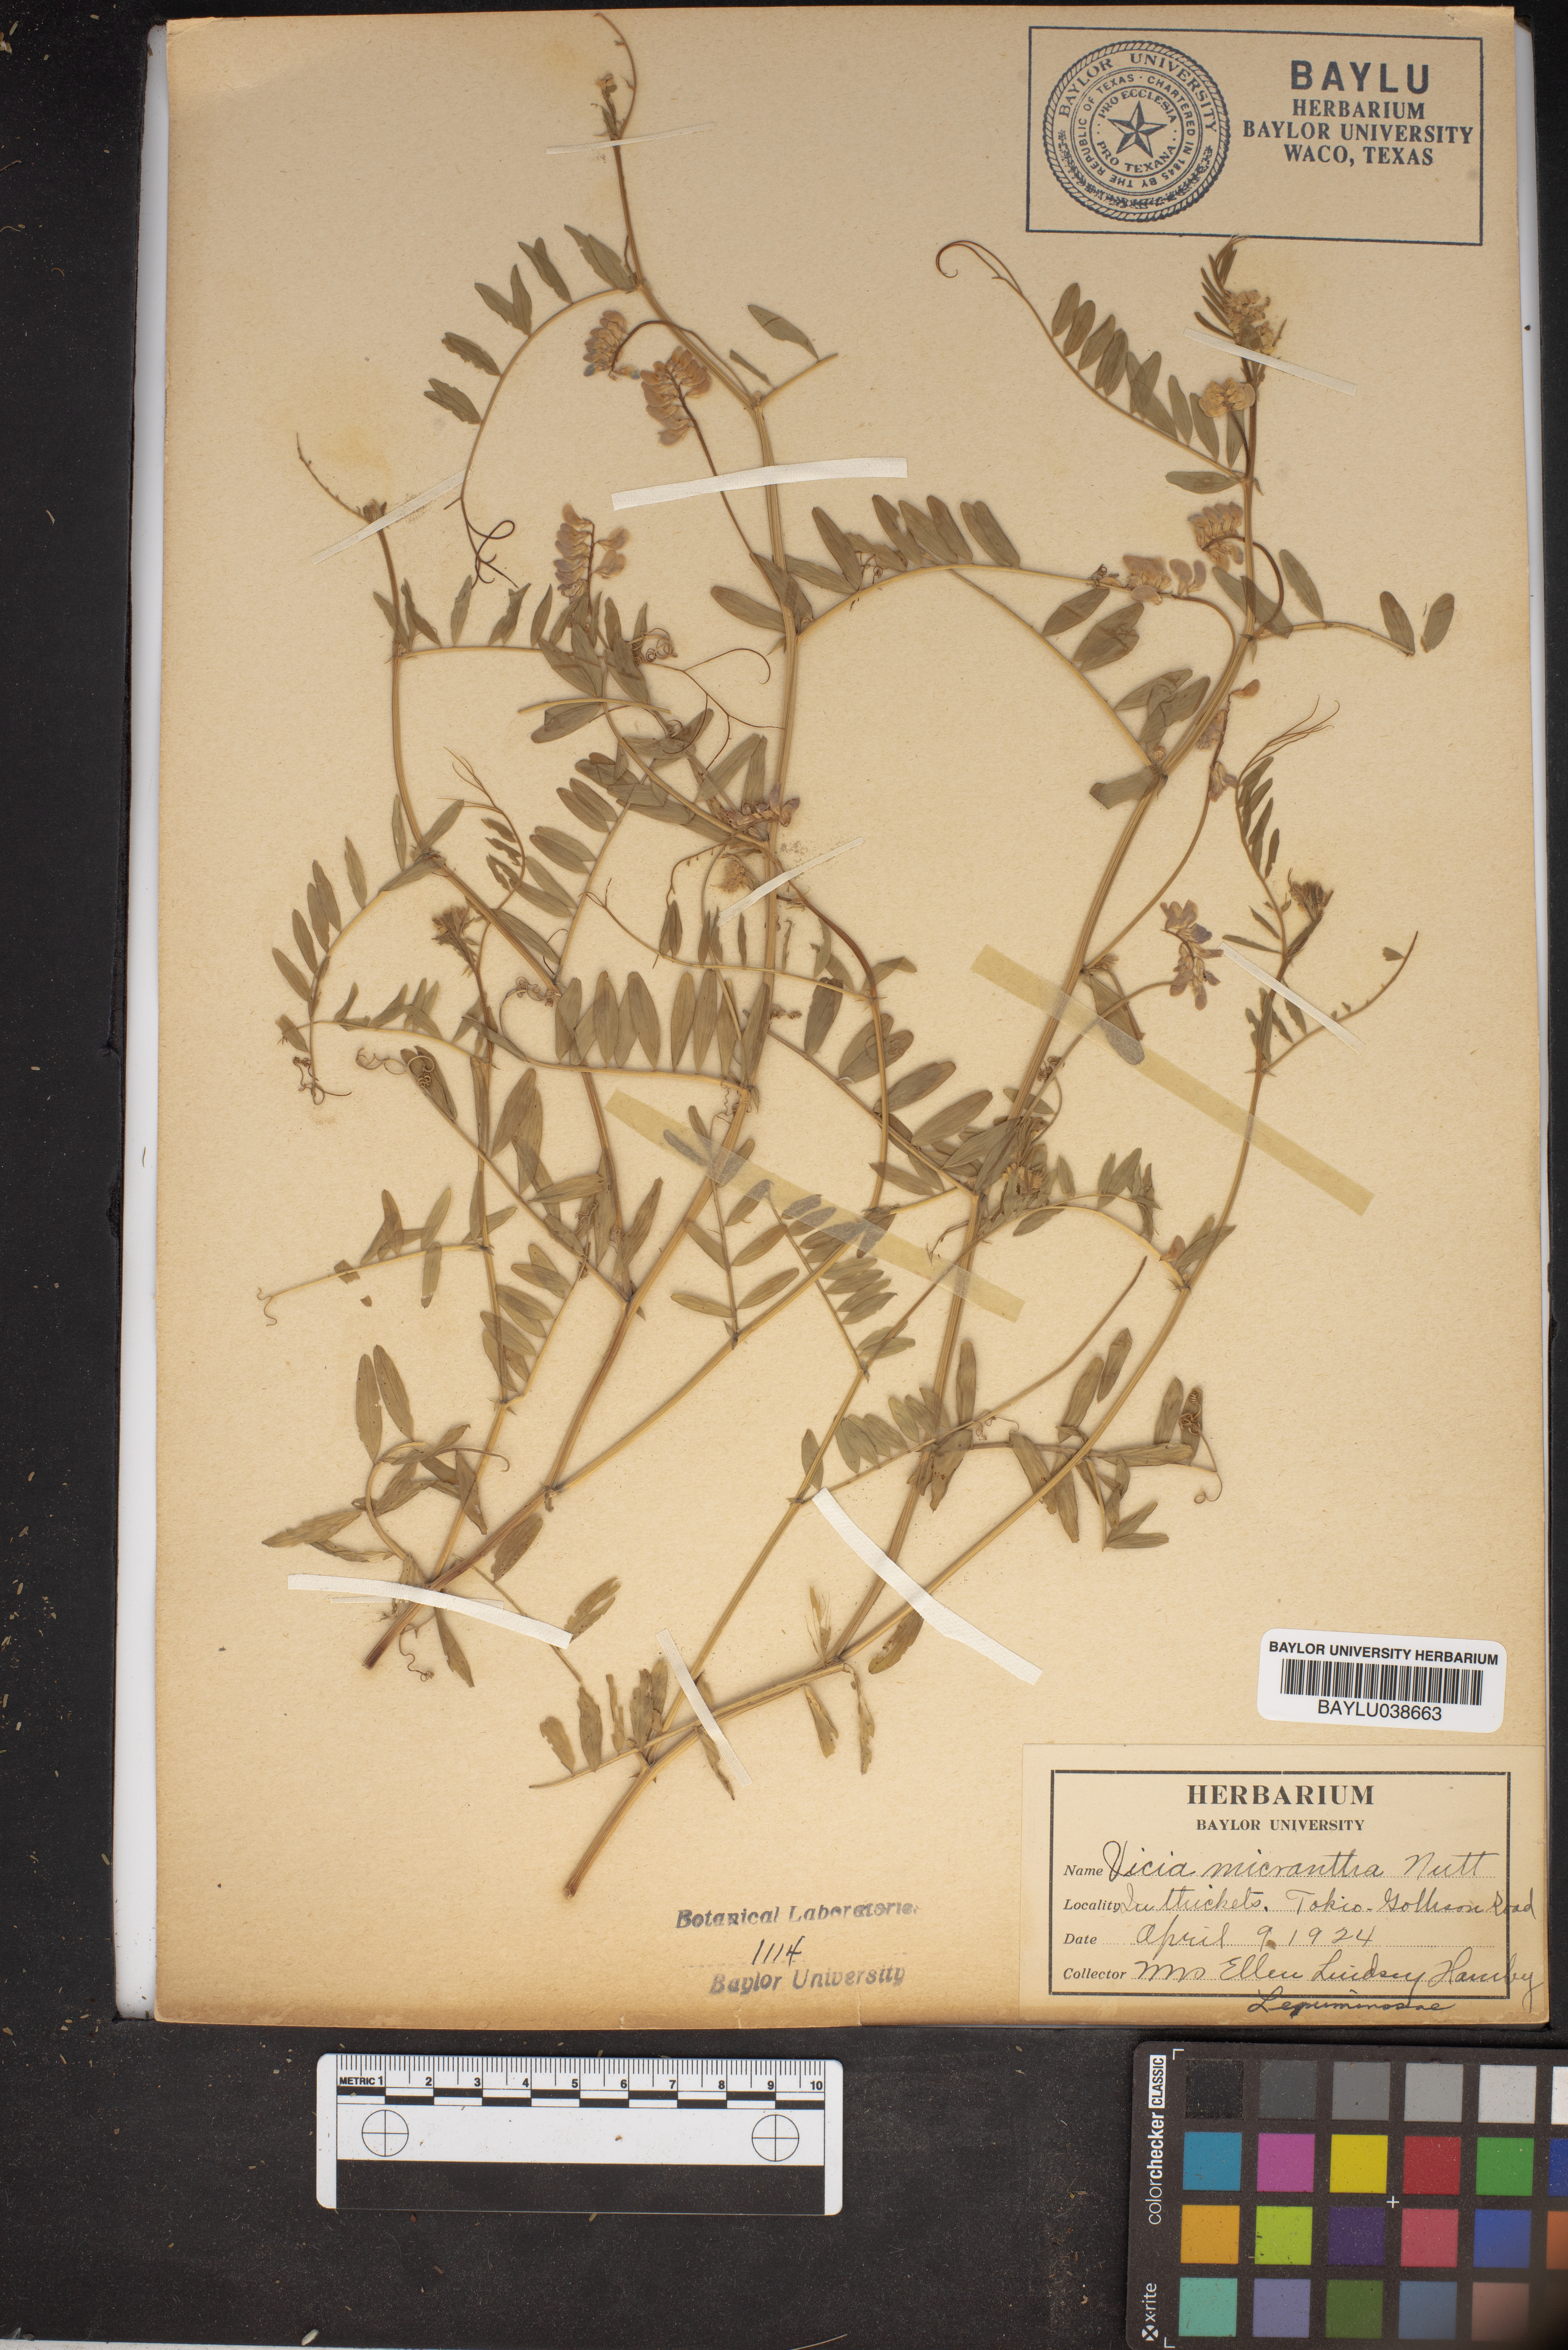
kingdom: Plantae
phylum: Tracheophyta
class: Magnoliopsida
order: Fabales
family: Fabaceae
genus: Vicia
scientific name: Vicia minutiflora
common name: Pygmy-flower vetch
